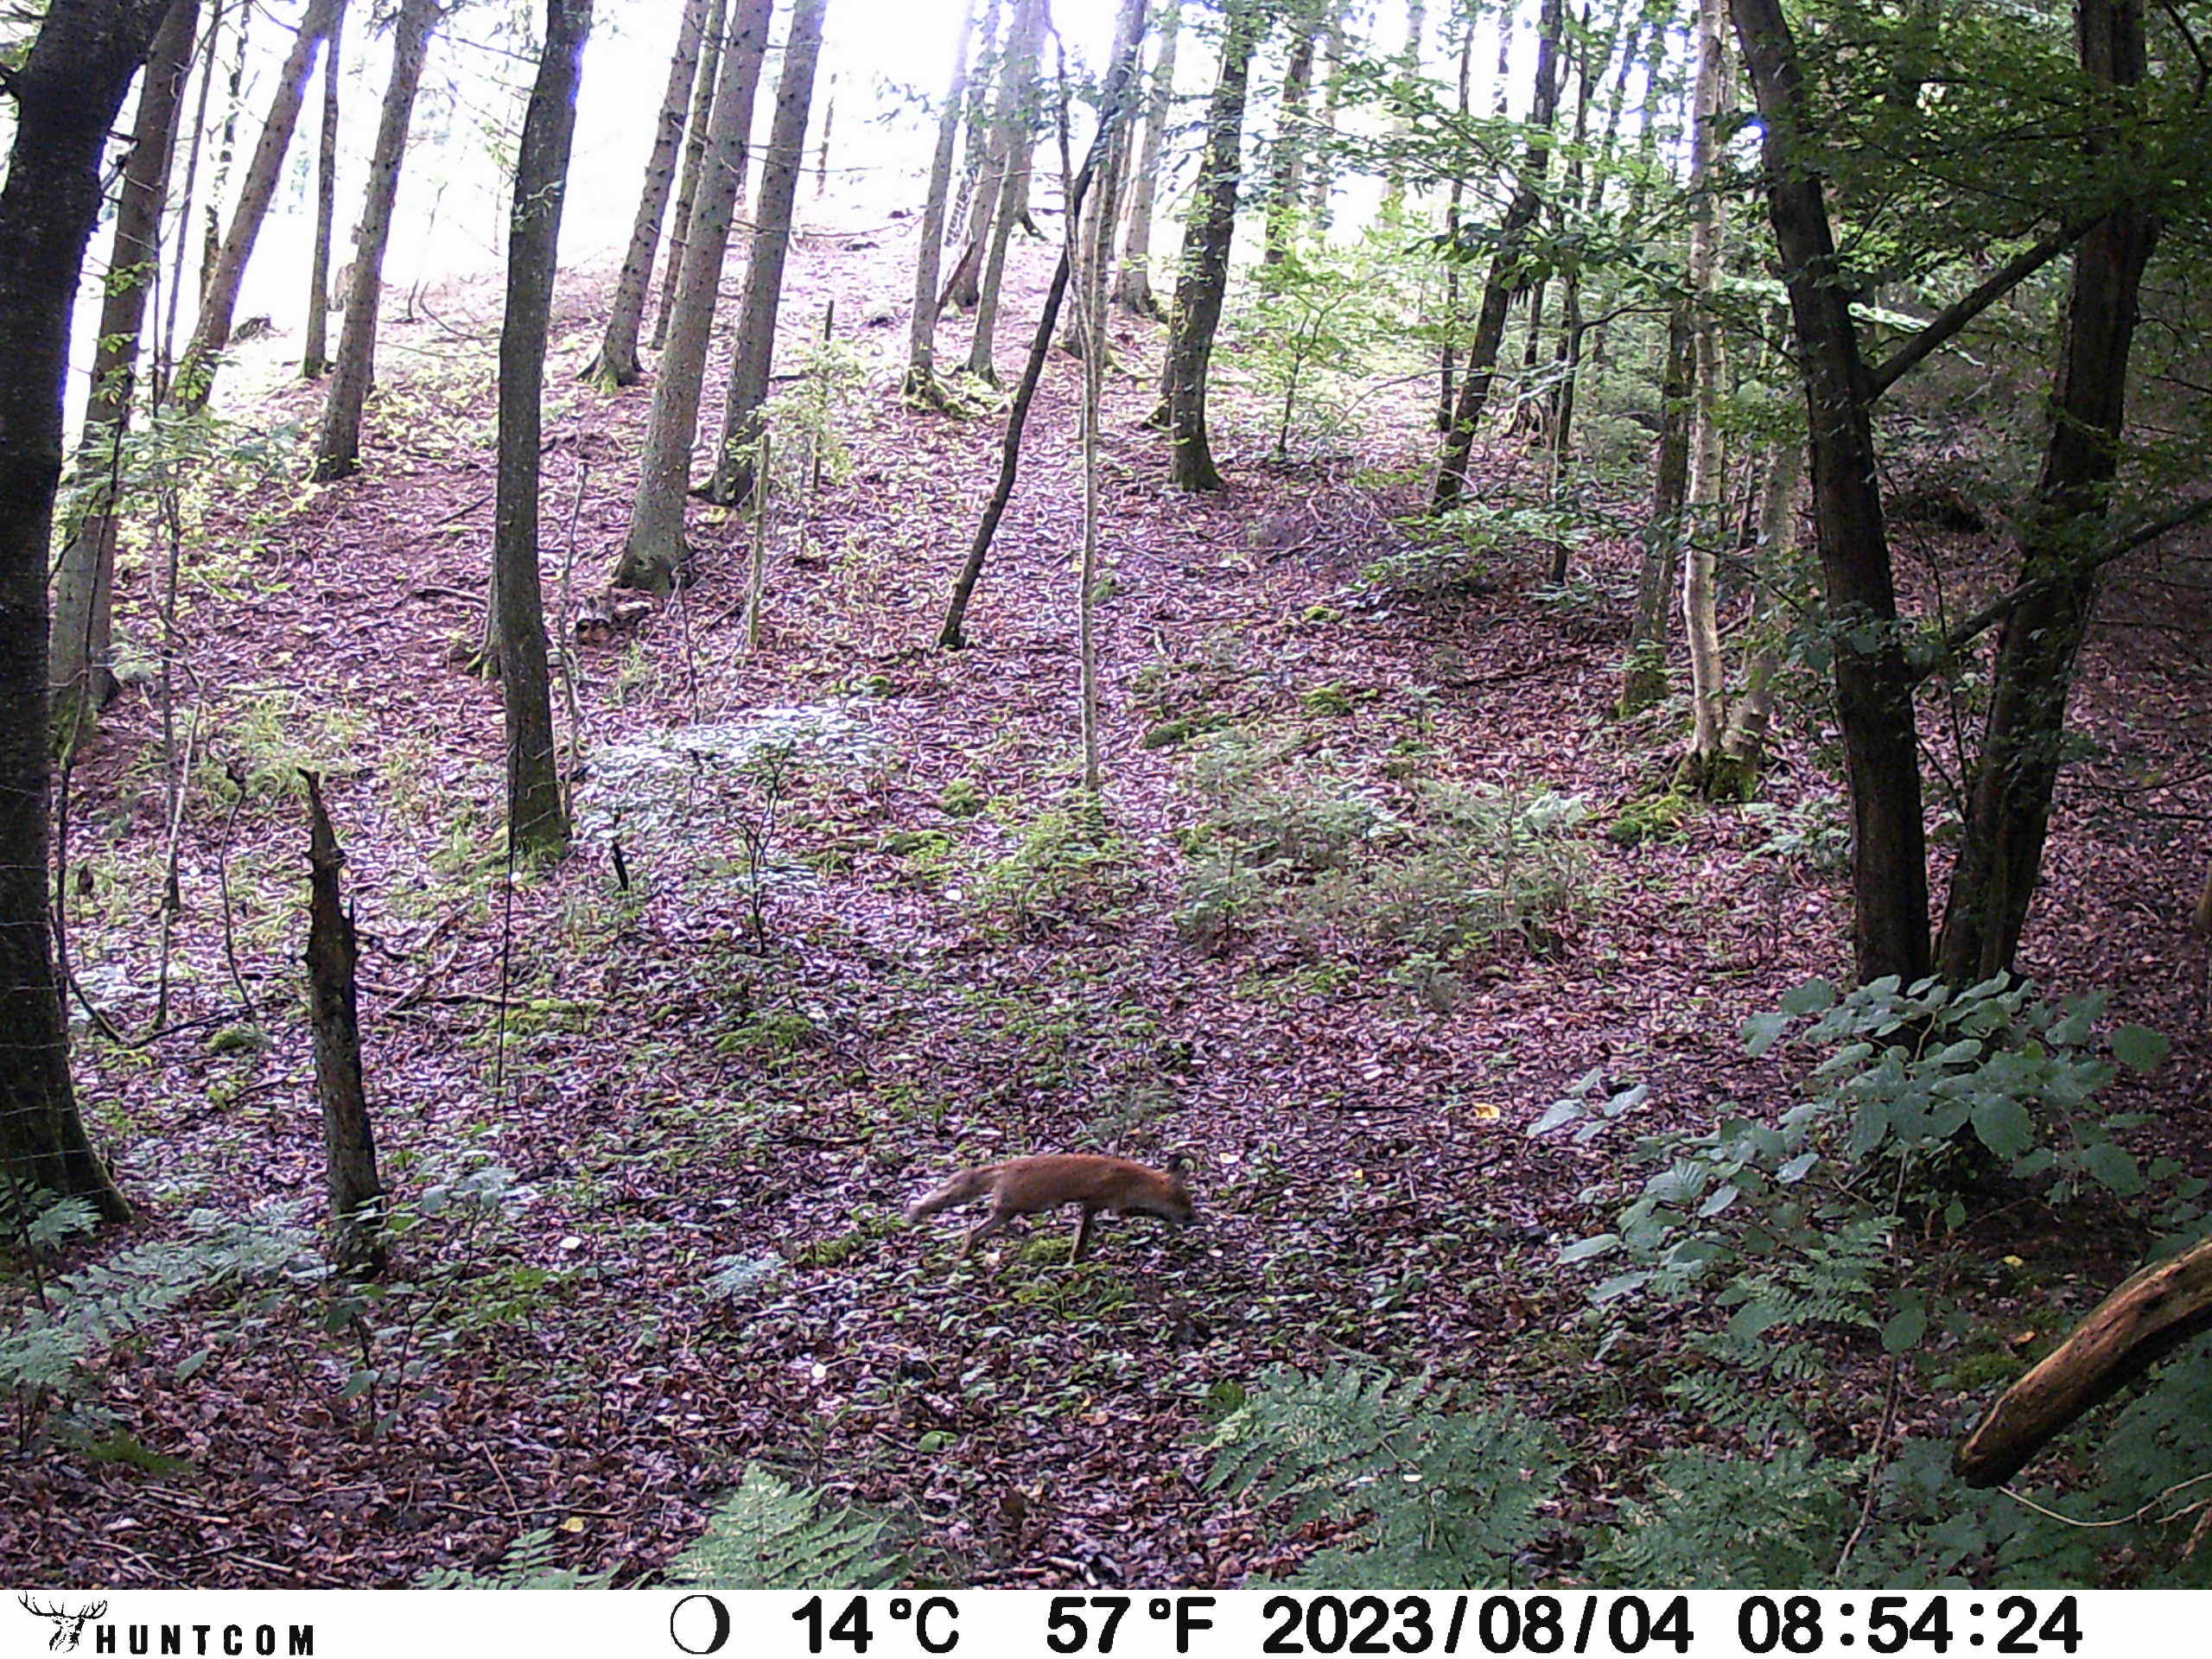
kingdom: Animalia
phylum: Chordata
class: Mammalia
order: Carnivora
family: Canidae
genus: Vulpes
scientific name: Vulpes vulpes
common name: Ræv
